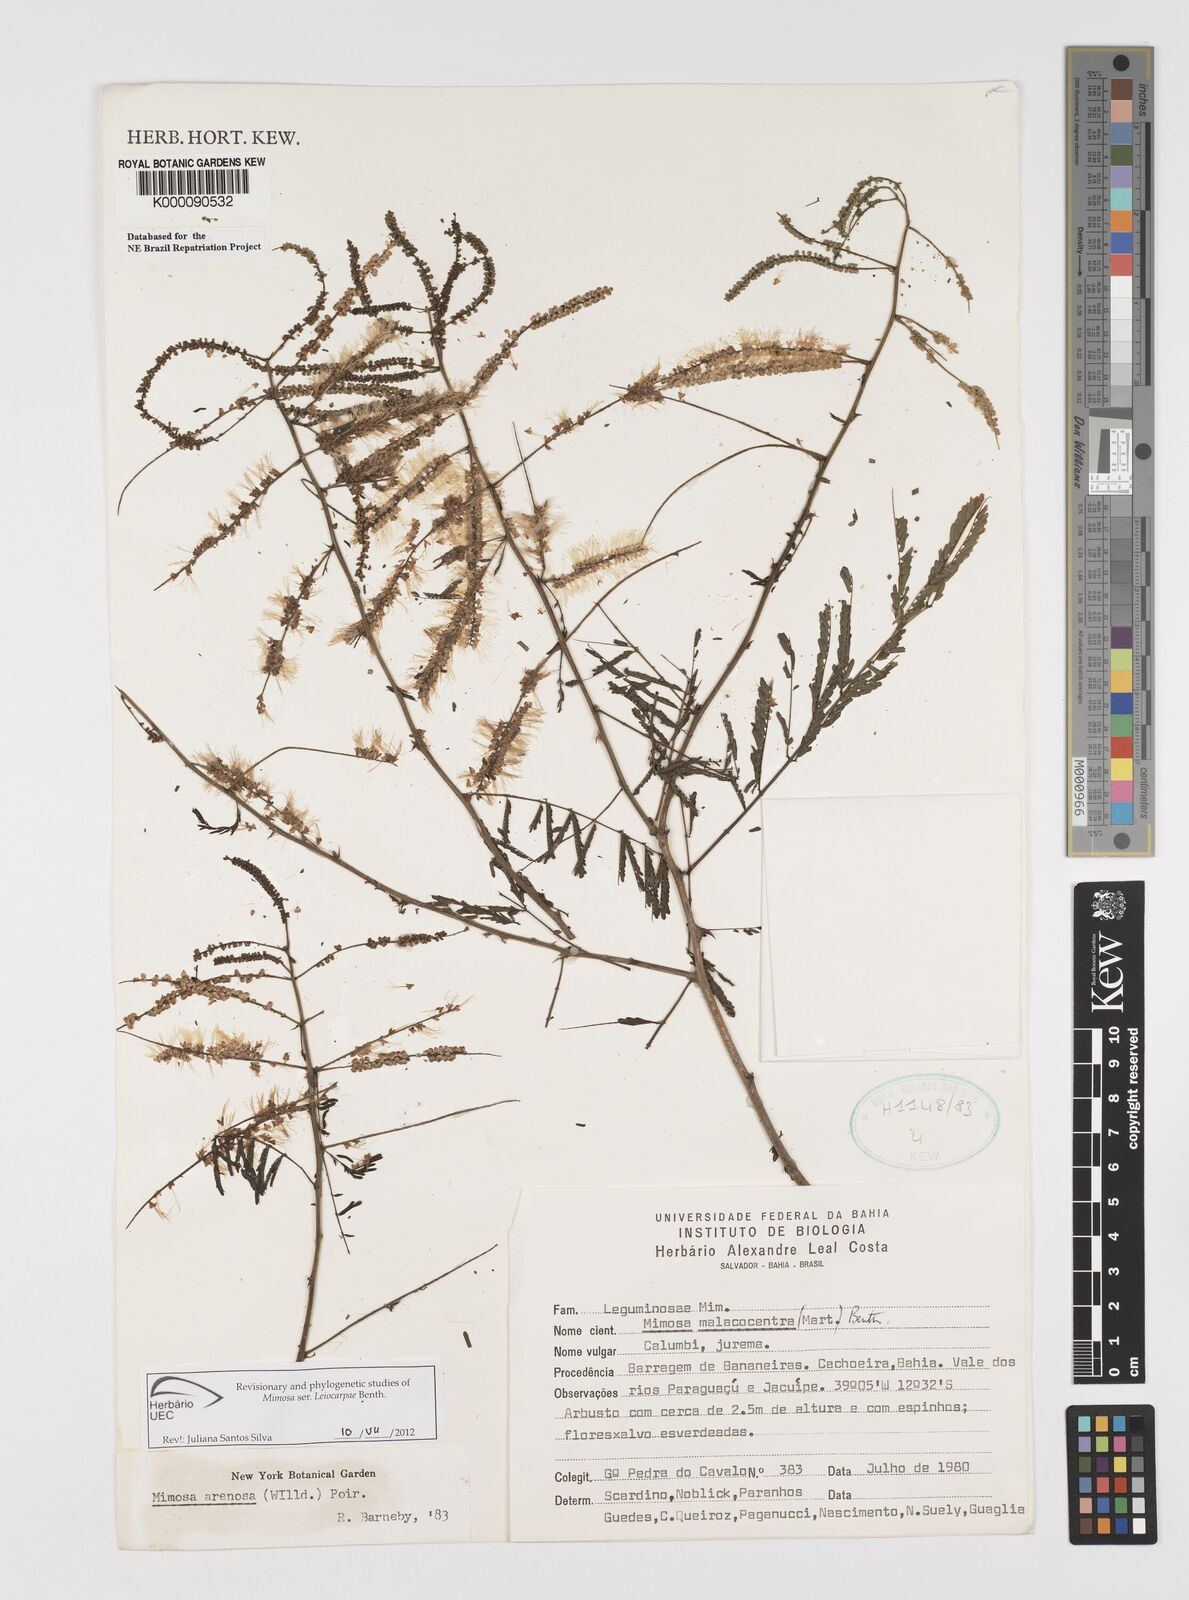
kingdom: Plantae
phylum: Tracheophyta
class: Magnoliopsida
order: Fabales
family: Fabaceae
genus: Mimosa
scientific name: Mimosa arenosa
